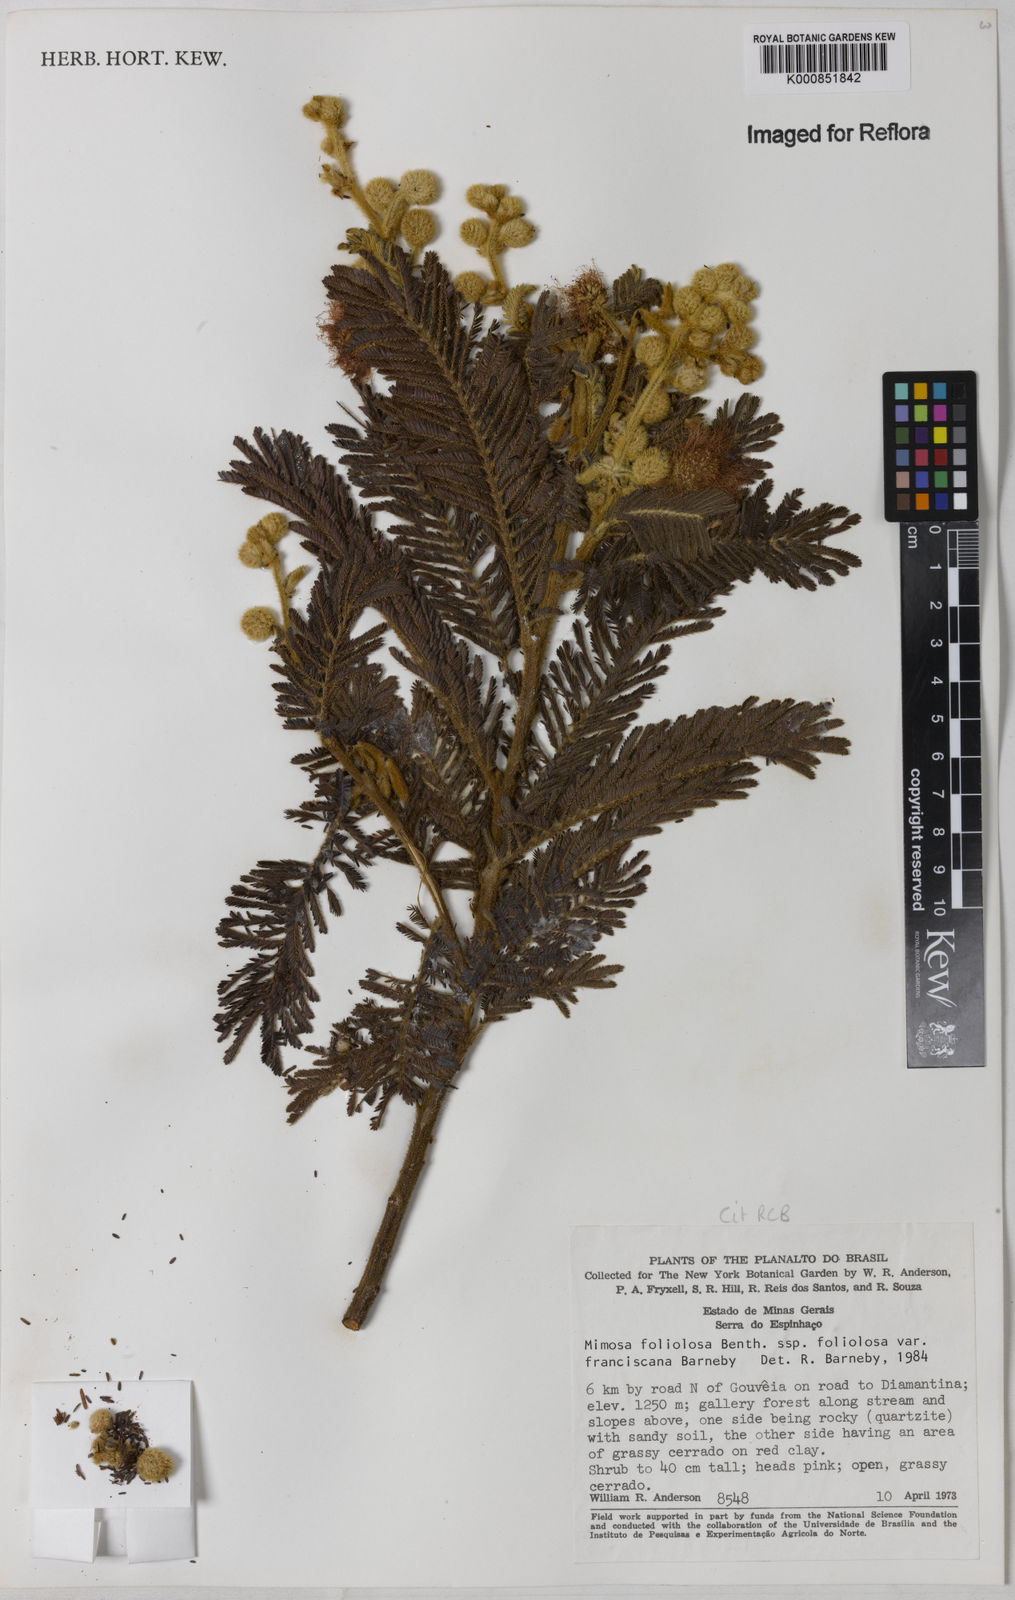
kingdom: Plantae
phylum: Tracheophyta
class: Magnoliopsida
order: Fabales
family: Fabaceae
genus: Mimosa
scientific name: Mimosa foliolosa
